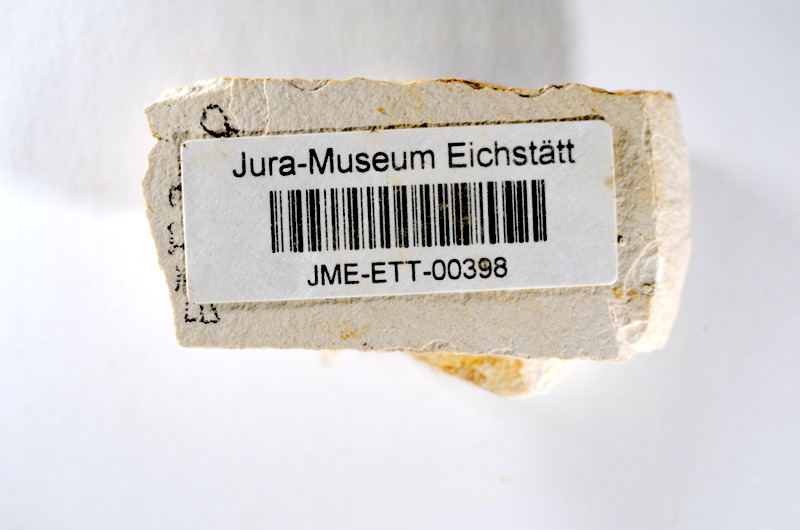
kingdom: Animalia
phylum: Chordata
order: Salmoniformes
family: Orthogonikleithridae
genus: Orthogonikleithrus
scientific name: Orthogonikleithrus hoelli
